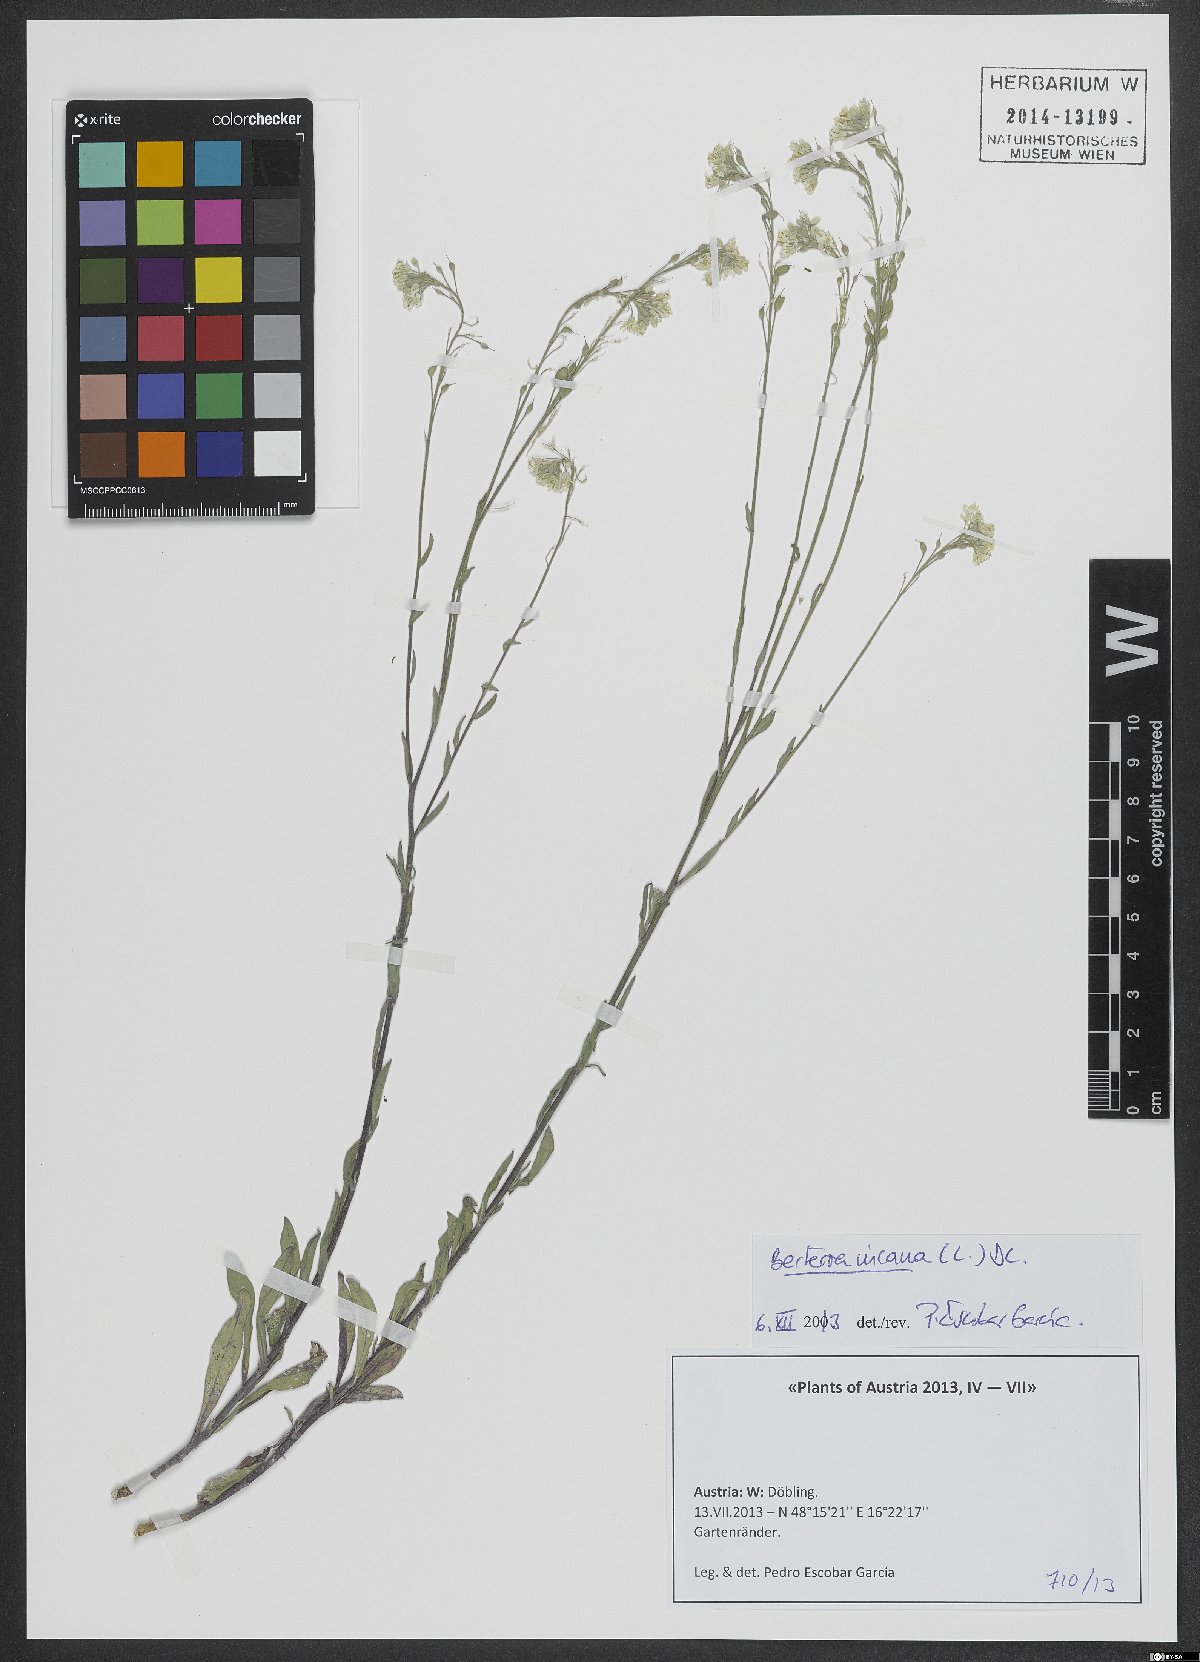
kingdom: Plantae
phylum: Tracheophyta
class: Magnoliopsida
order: Brassicales
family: Brassicaceae
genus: Berteroa
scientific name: Berteroa incana
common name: Hoary alison
